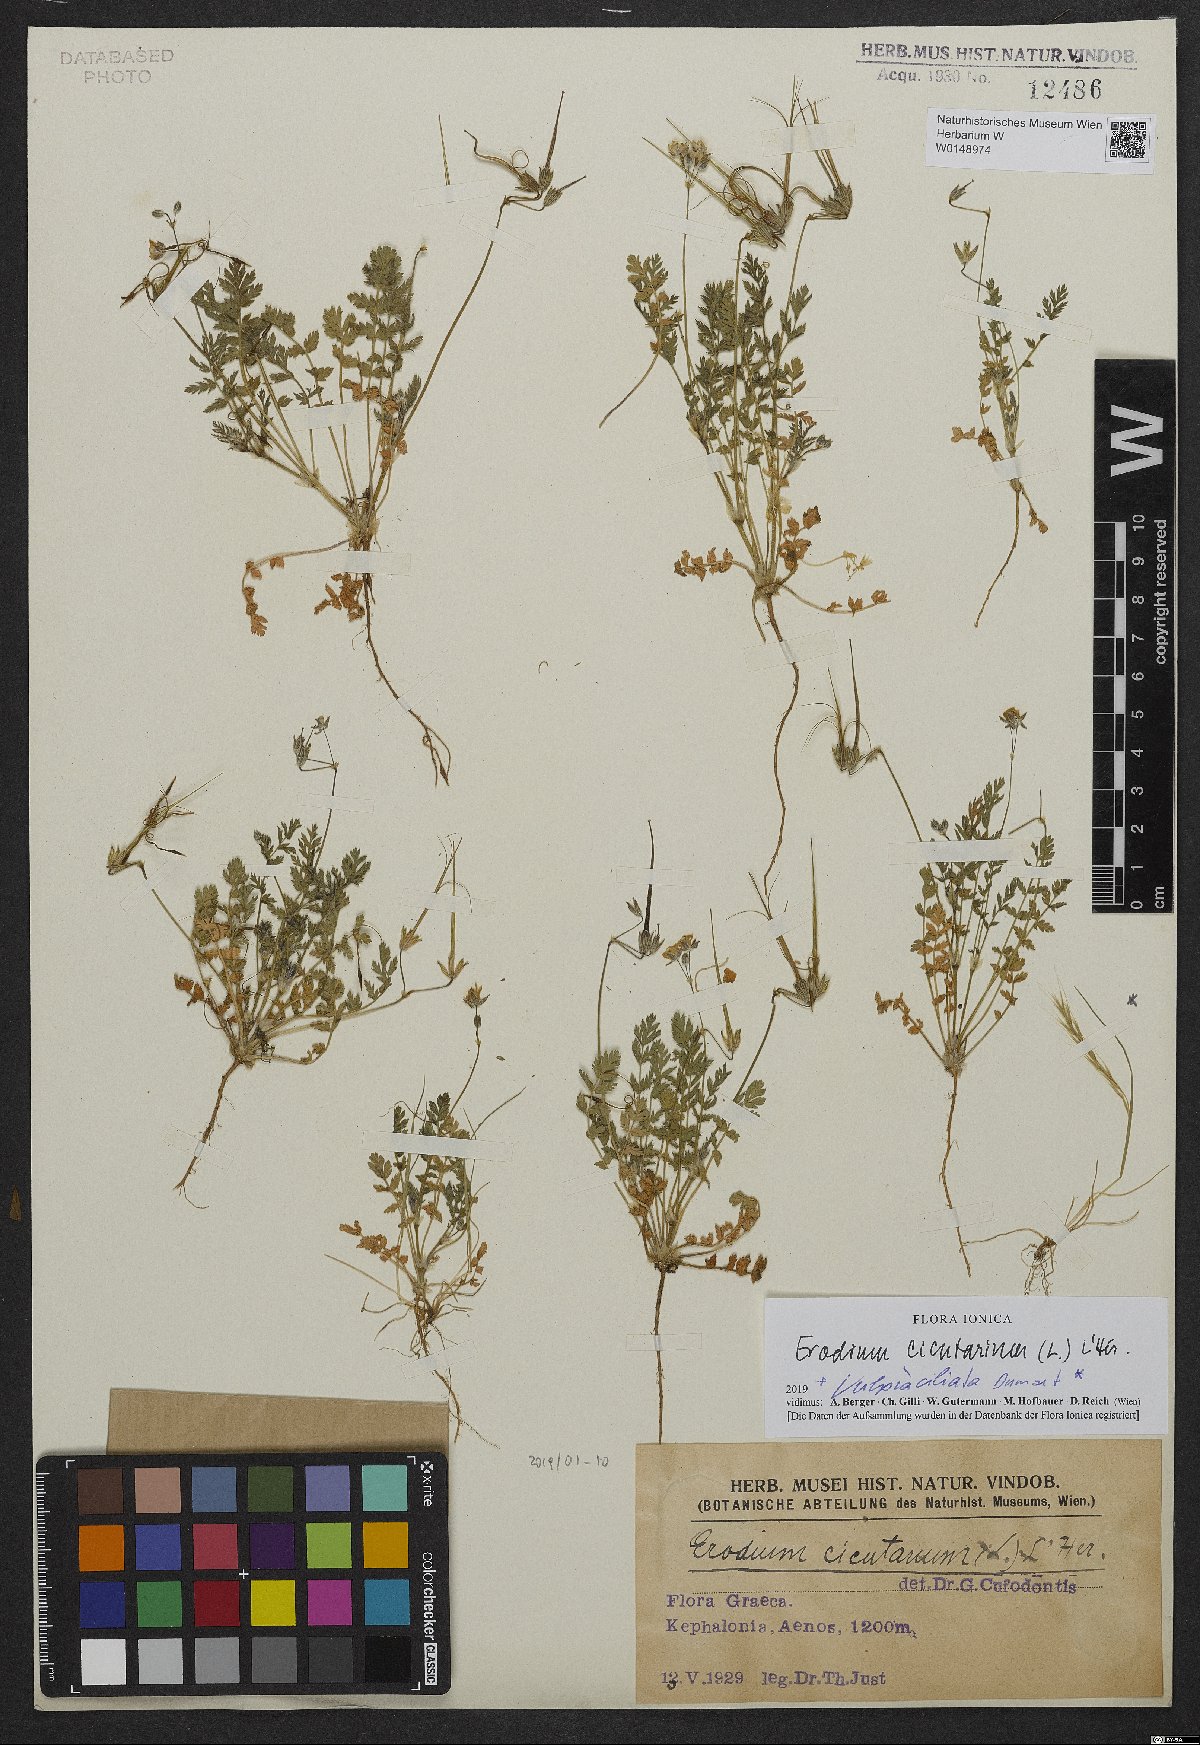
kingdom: Plantae
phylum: Tracheophyta
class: Magnoliopsida
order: Geraniales
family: Geraniaceae
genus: Erodium
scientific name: Erodium cicutarium
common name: Common stork's-bill
